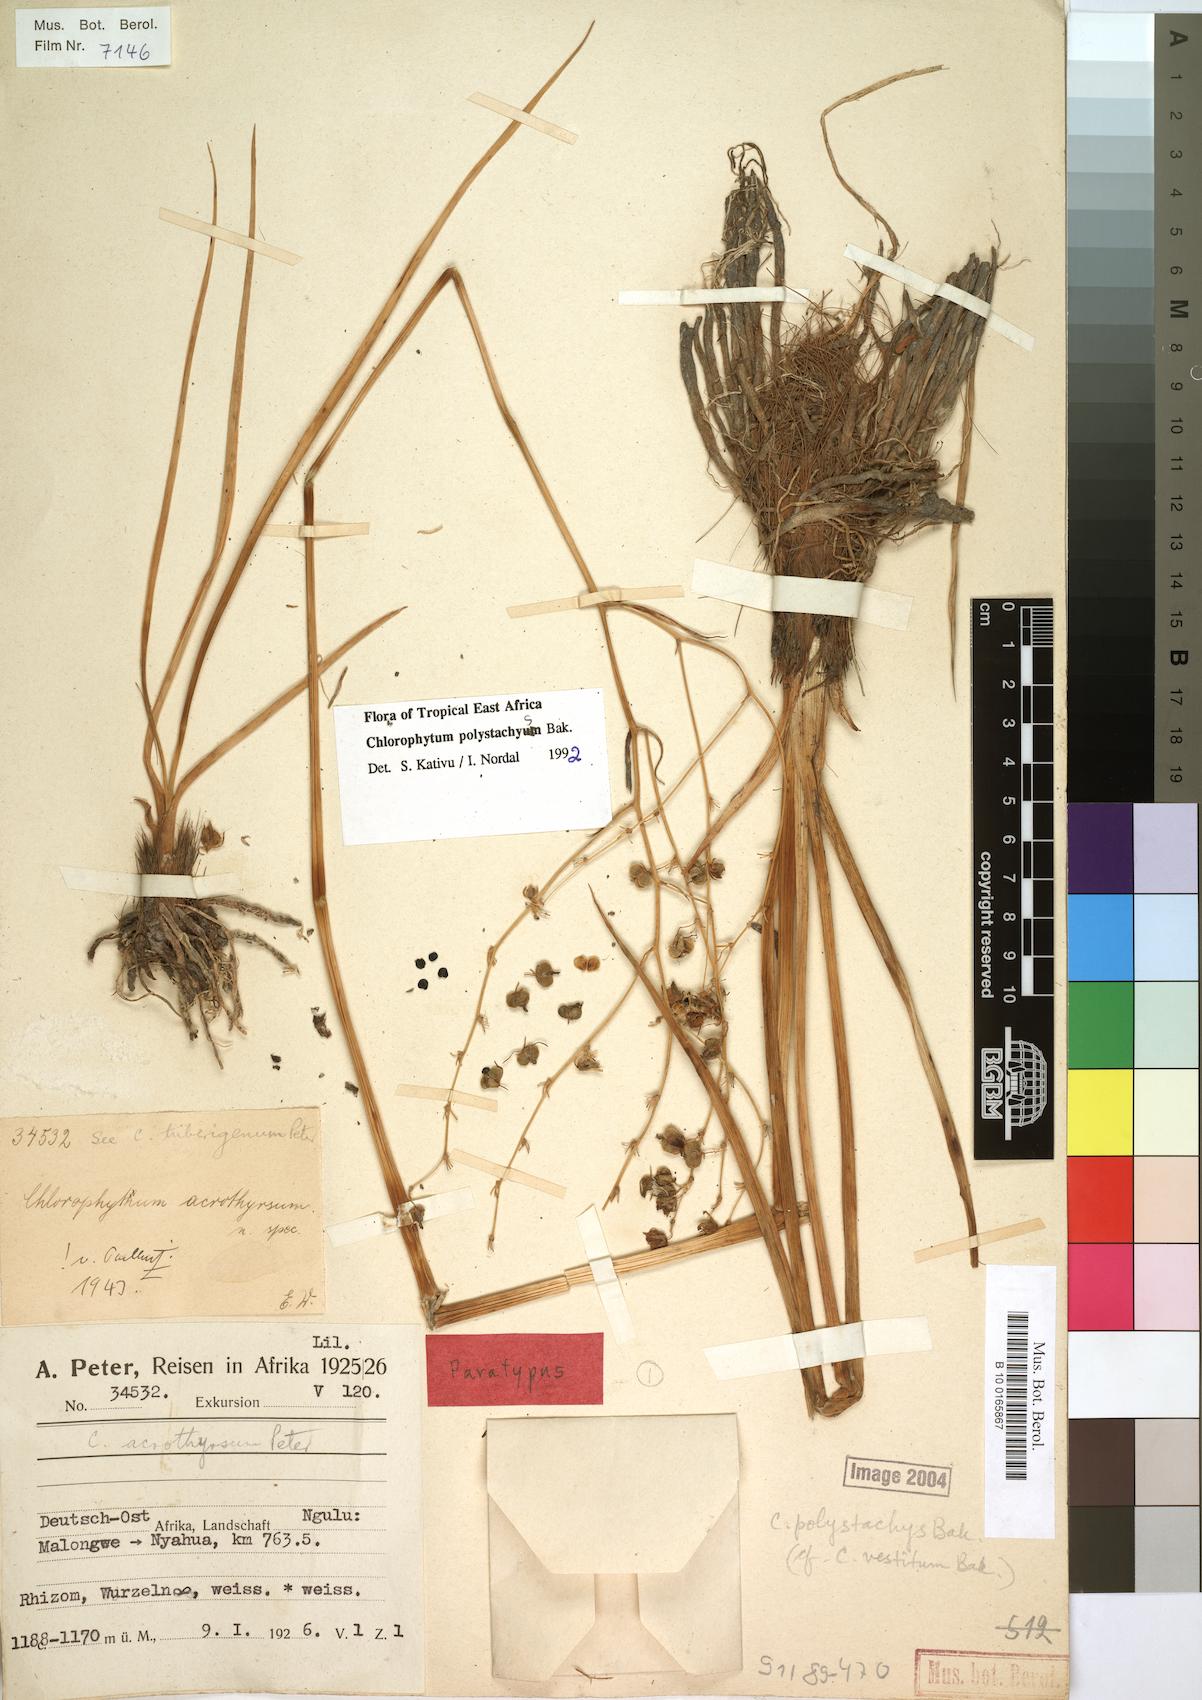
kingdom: Plantae
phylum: Tracheophyta
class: Liliopsida
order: Asparagales
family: Asparagaceae
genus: Chlorophytum
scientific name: Chlorophytum polystachys
